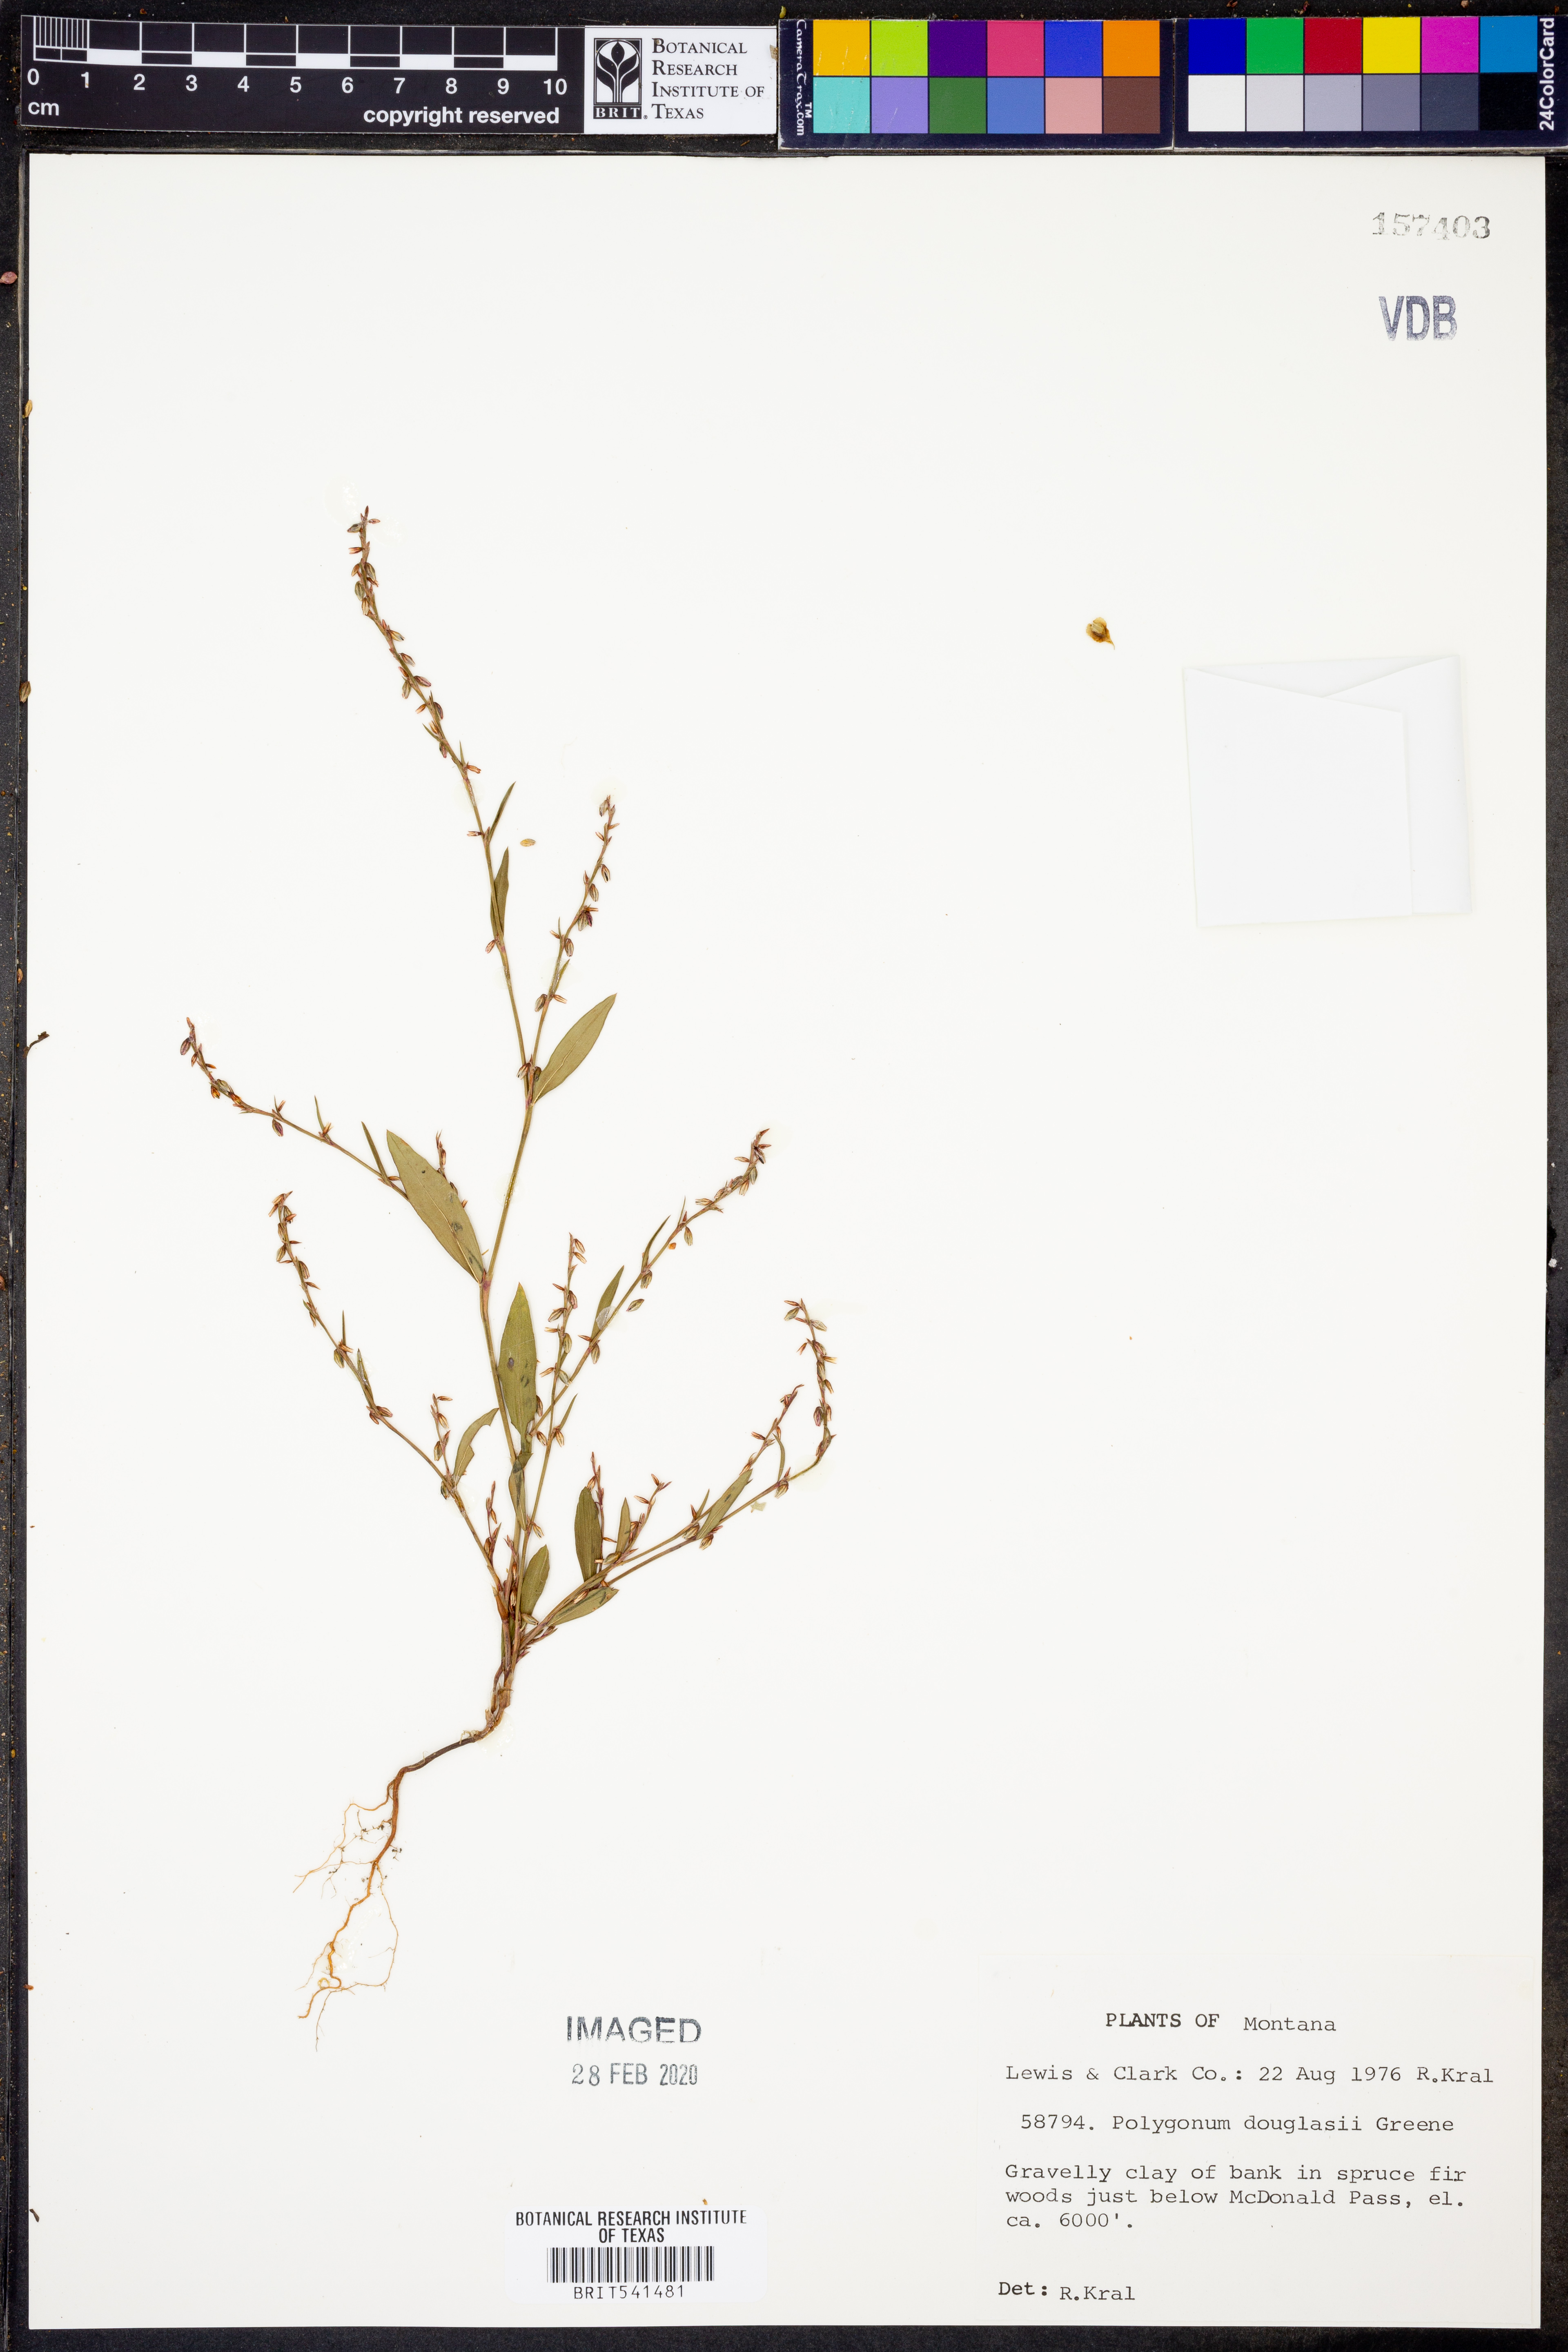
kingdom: Plantae
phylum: Tracheophyta
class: Magnoliopsida
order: Caryophyllales
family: Polygonaceae
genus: Polygonum
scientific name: Polygonum douglasii
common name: Douglas' knotweed
